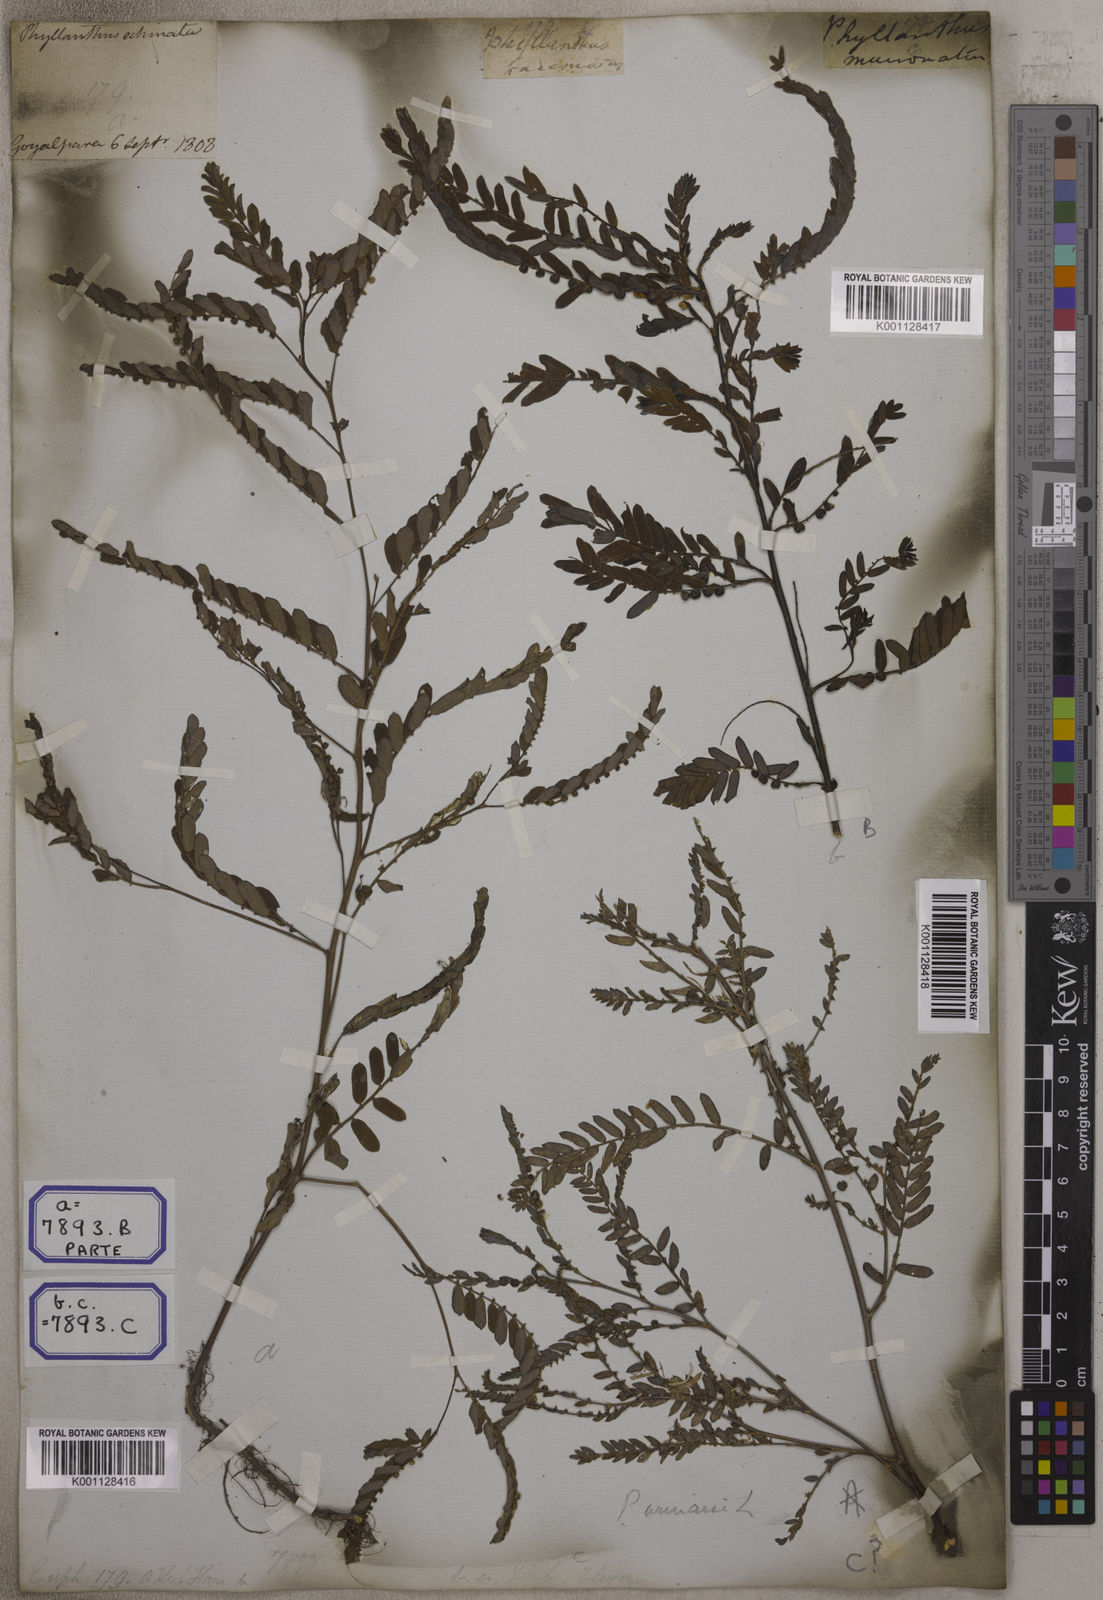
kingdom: Plantae
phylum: Tracheophyta
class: Magnoliopsida
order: Malpighiales
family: Euphorbiaceae
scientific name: Euphorbiaceae
